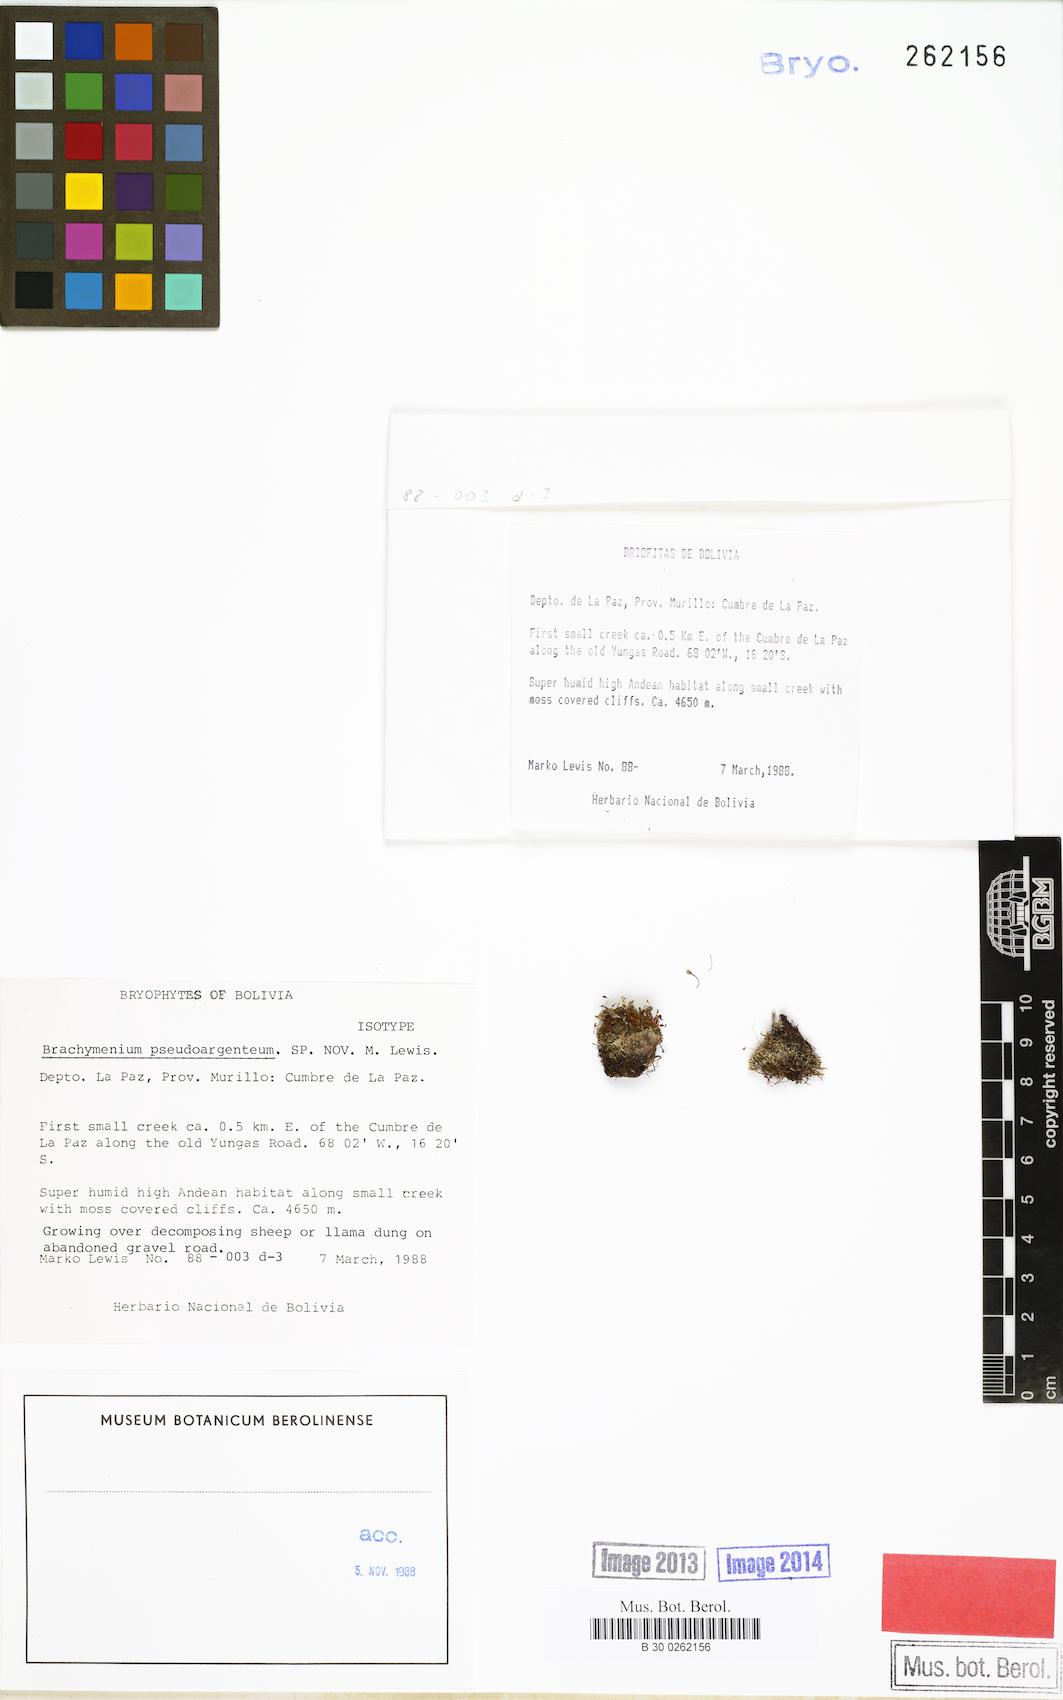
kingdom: Plantae
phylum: Bryophyta
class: Bryopsida
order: Bryales
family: Bryaceae
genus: Brachymenium
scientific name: Brachymenium
